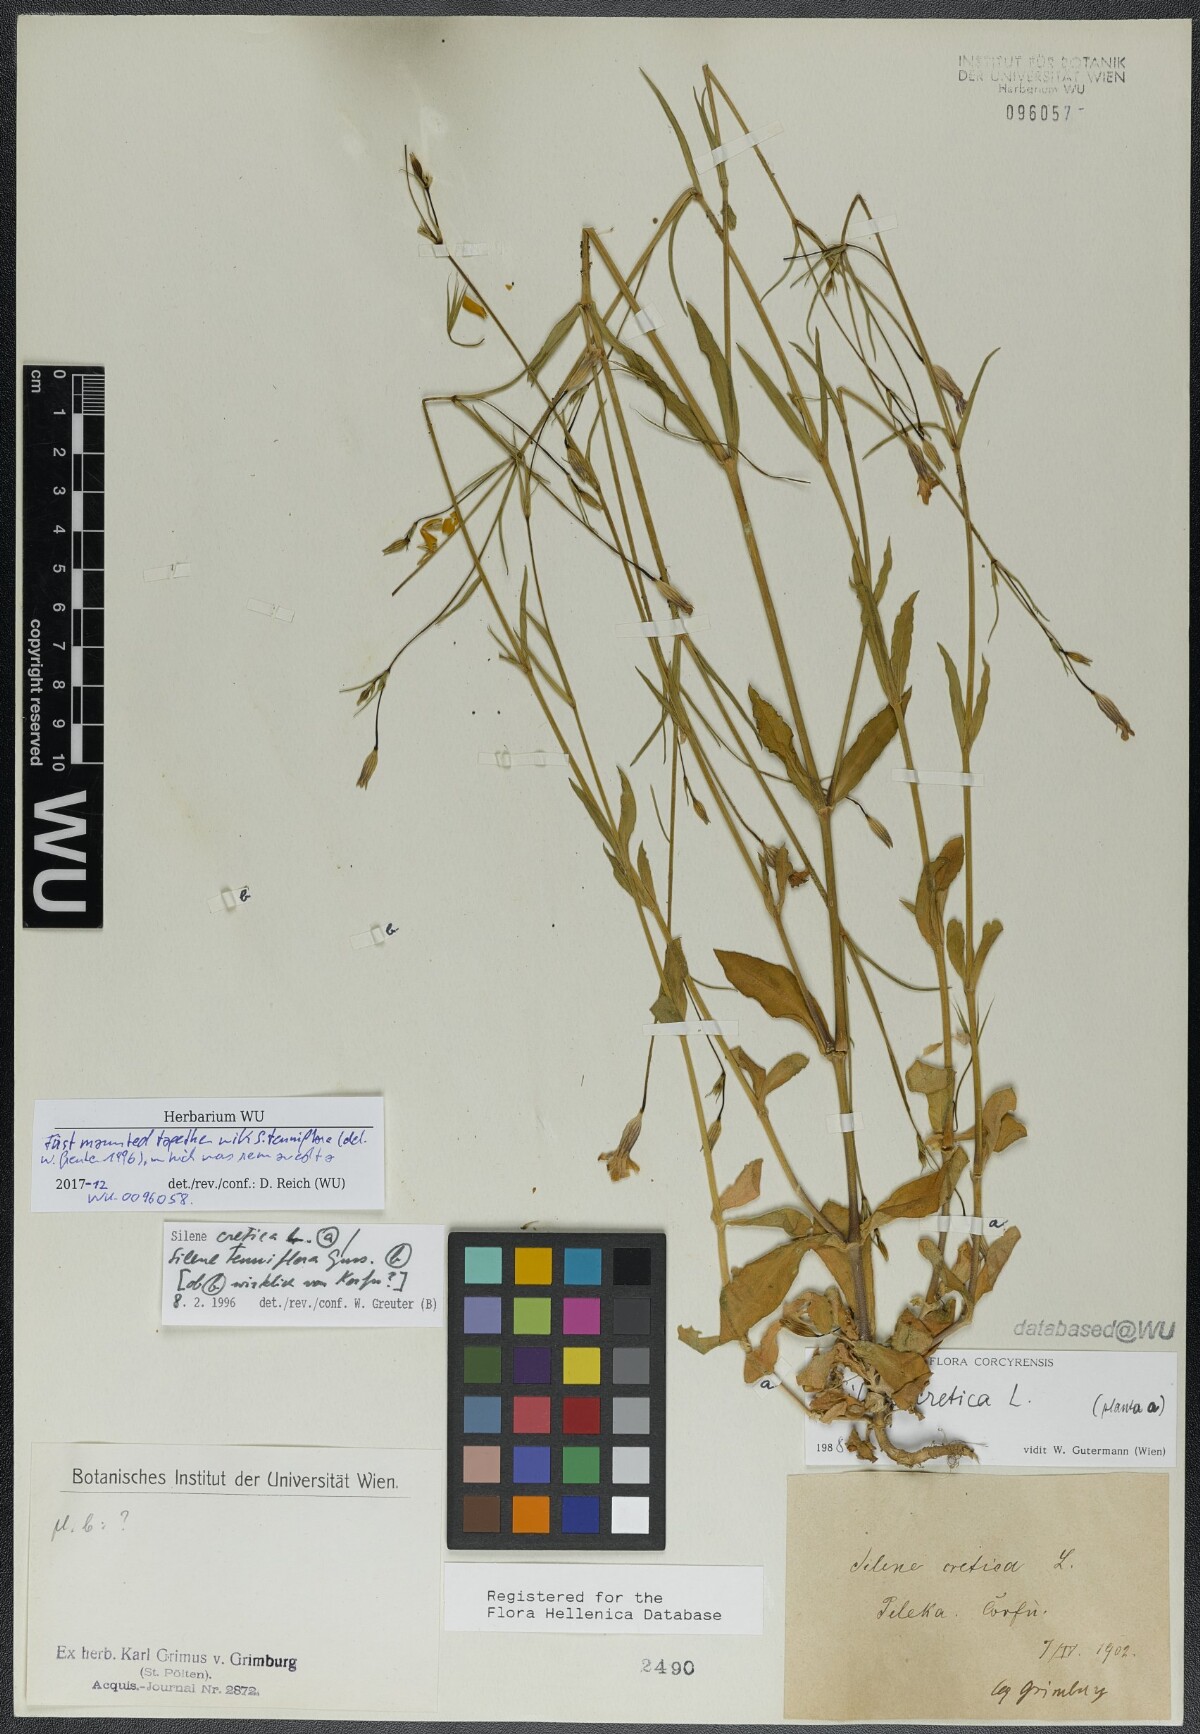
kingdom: Plantae
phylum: Tracheophyta
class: Magnoliopsida
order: Caryophyllales
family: Caryophyllaceae
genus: Silene
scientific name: Silene cretica
